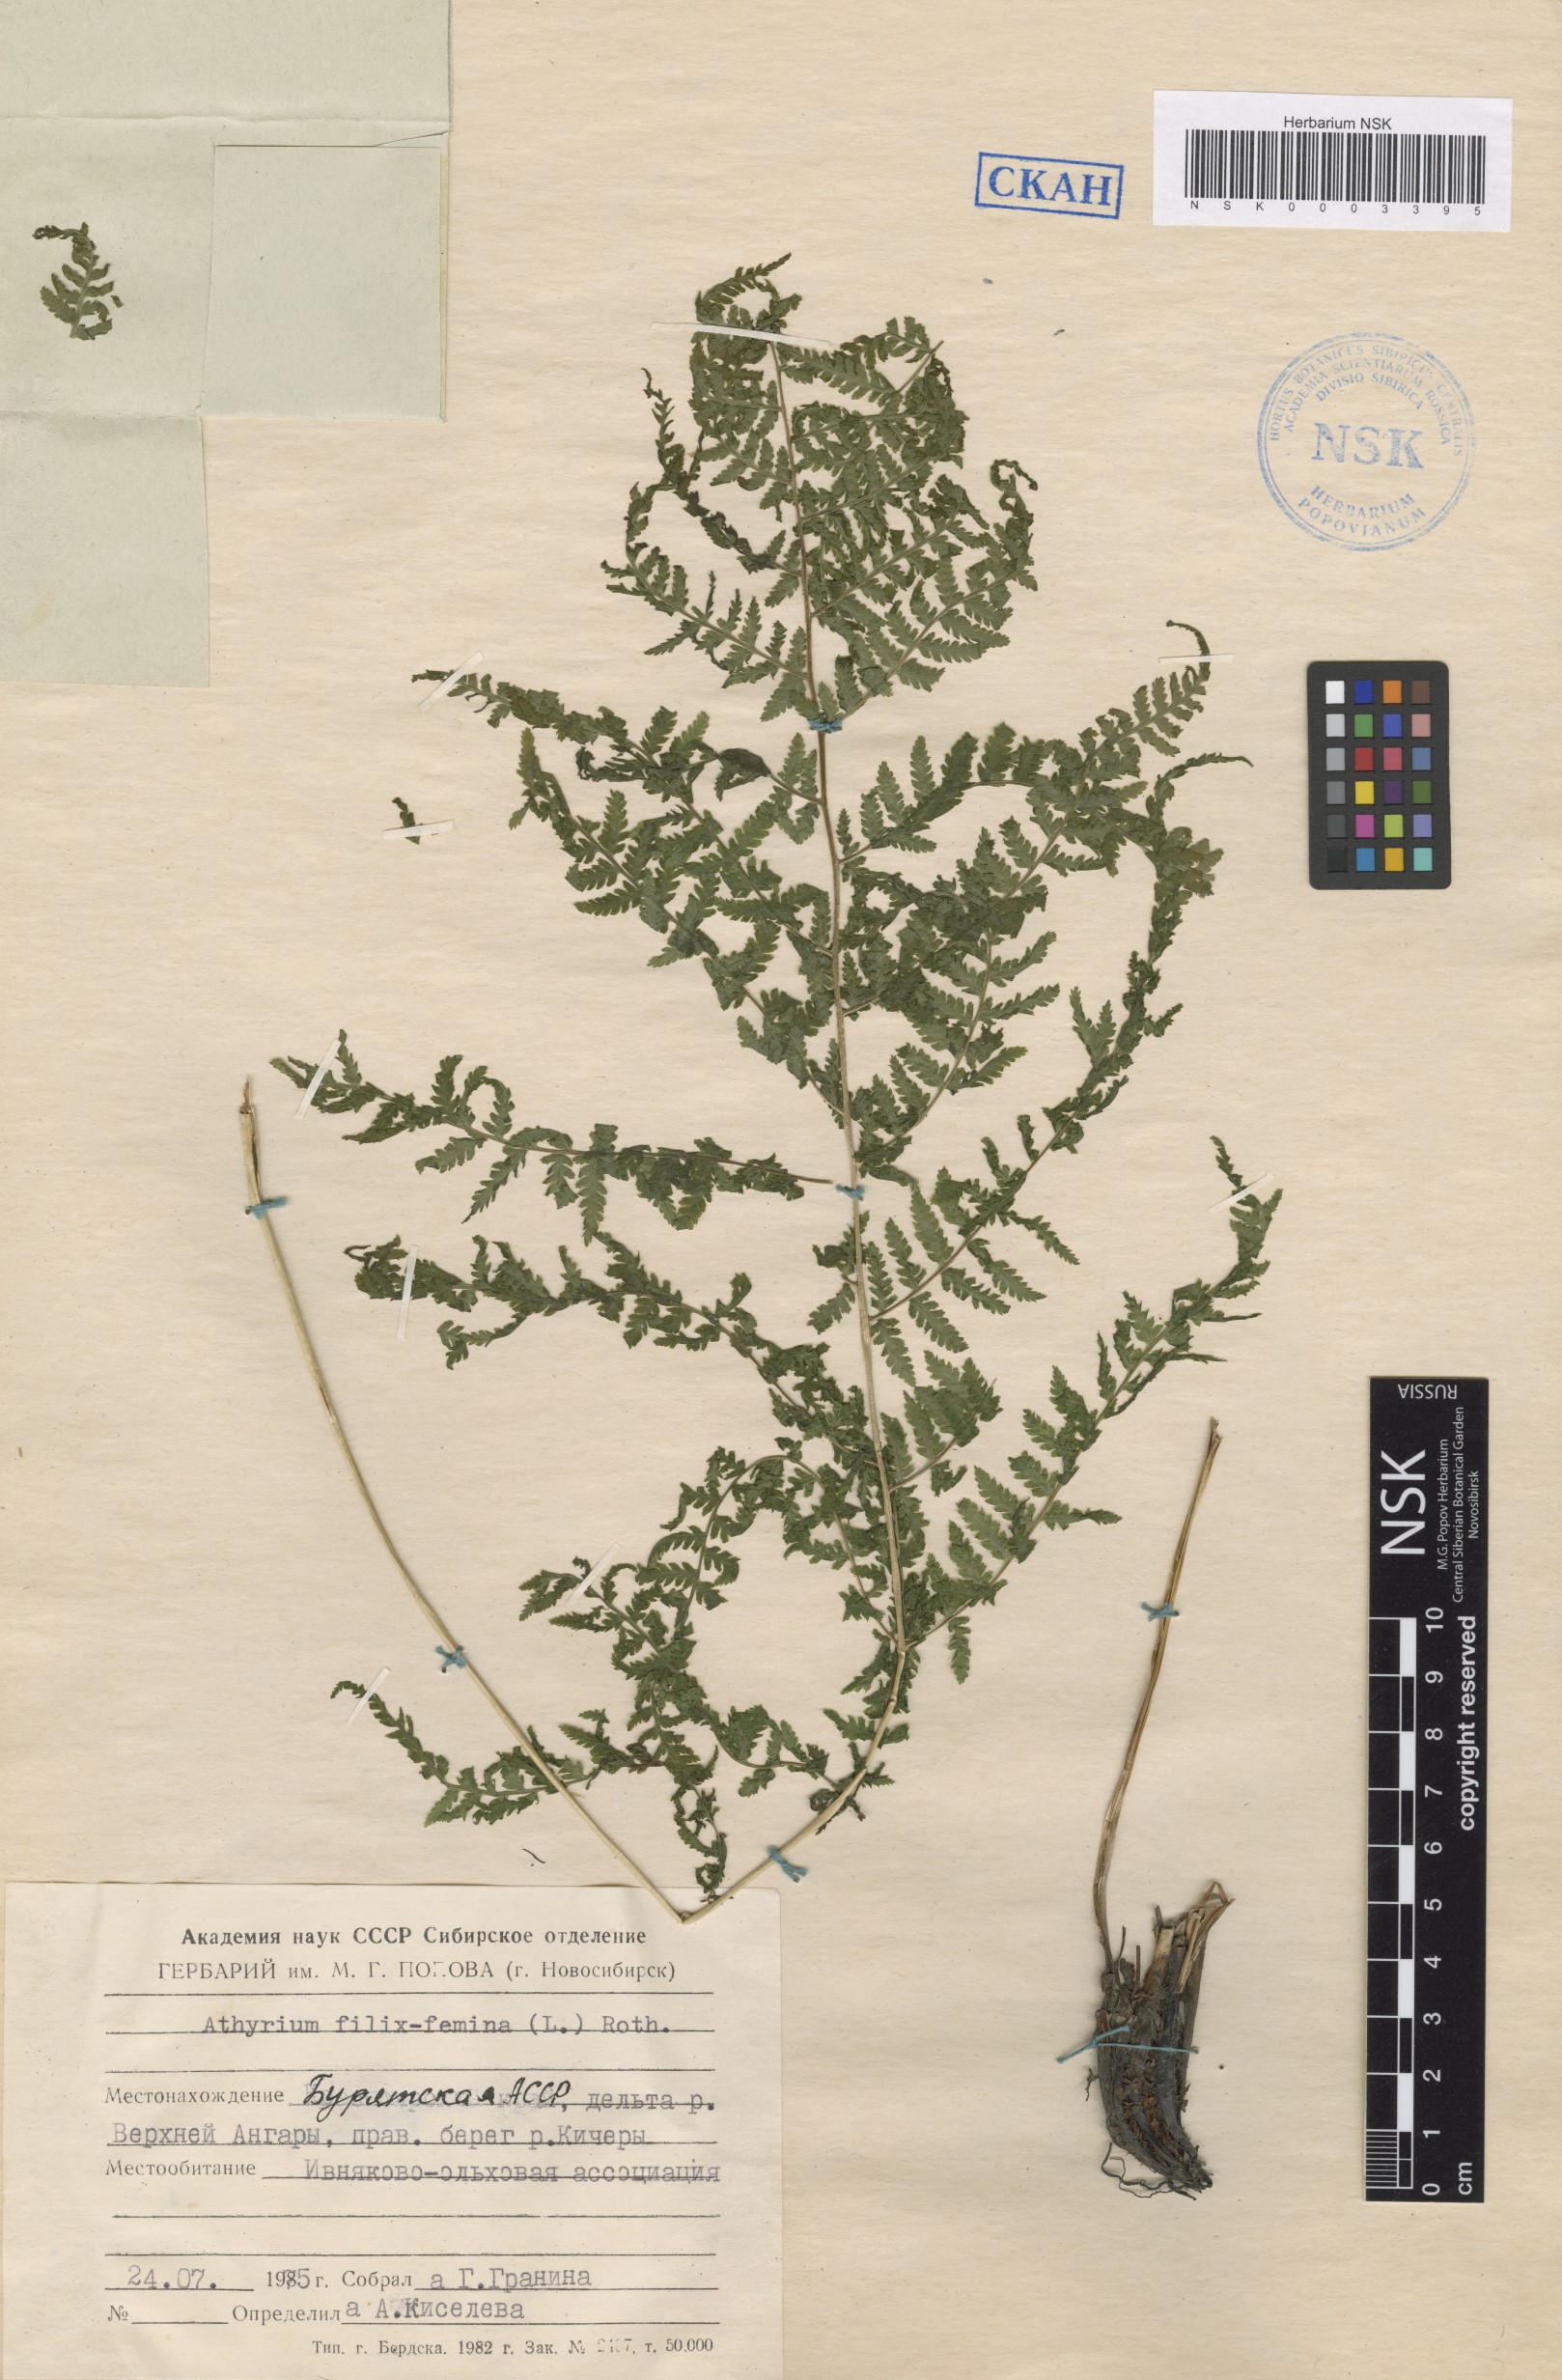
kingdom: Plantae
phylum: Tracheophyta
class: Polypodiopsida
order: Polypodiales
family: Athyriaceae
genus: Athyrium
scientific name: Athyrium filix-femina
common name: Lady fern
